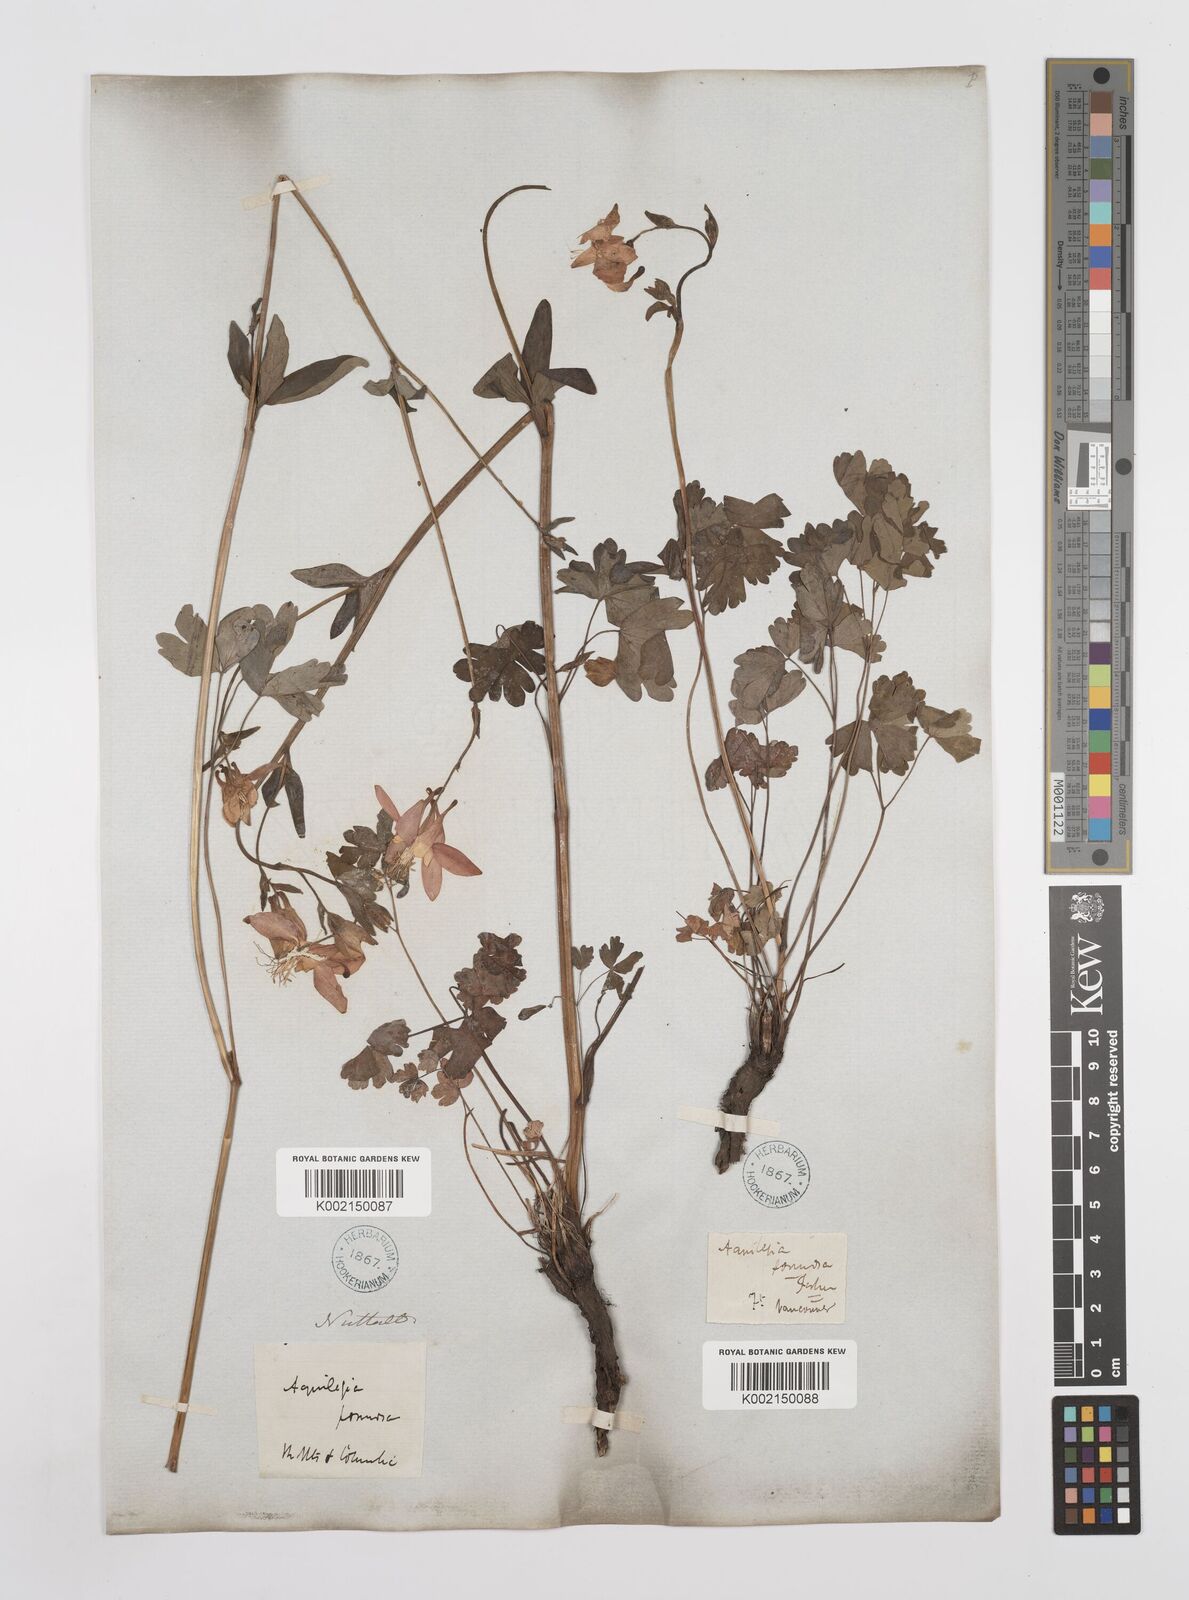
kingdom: Plantae
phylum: Tracheophyta
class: Magnoliopsida
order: Ranunculales
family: Ranunculaceae
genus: Aquilegia
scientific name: Aquilegia
